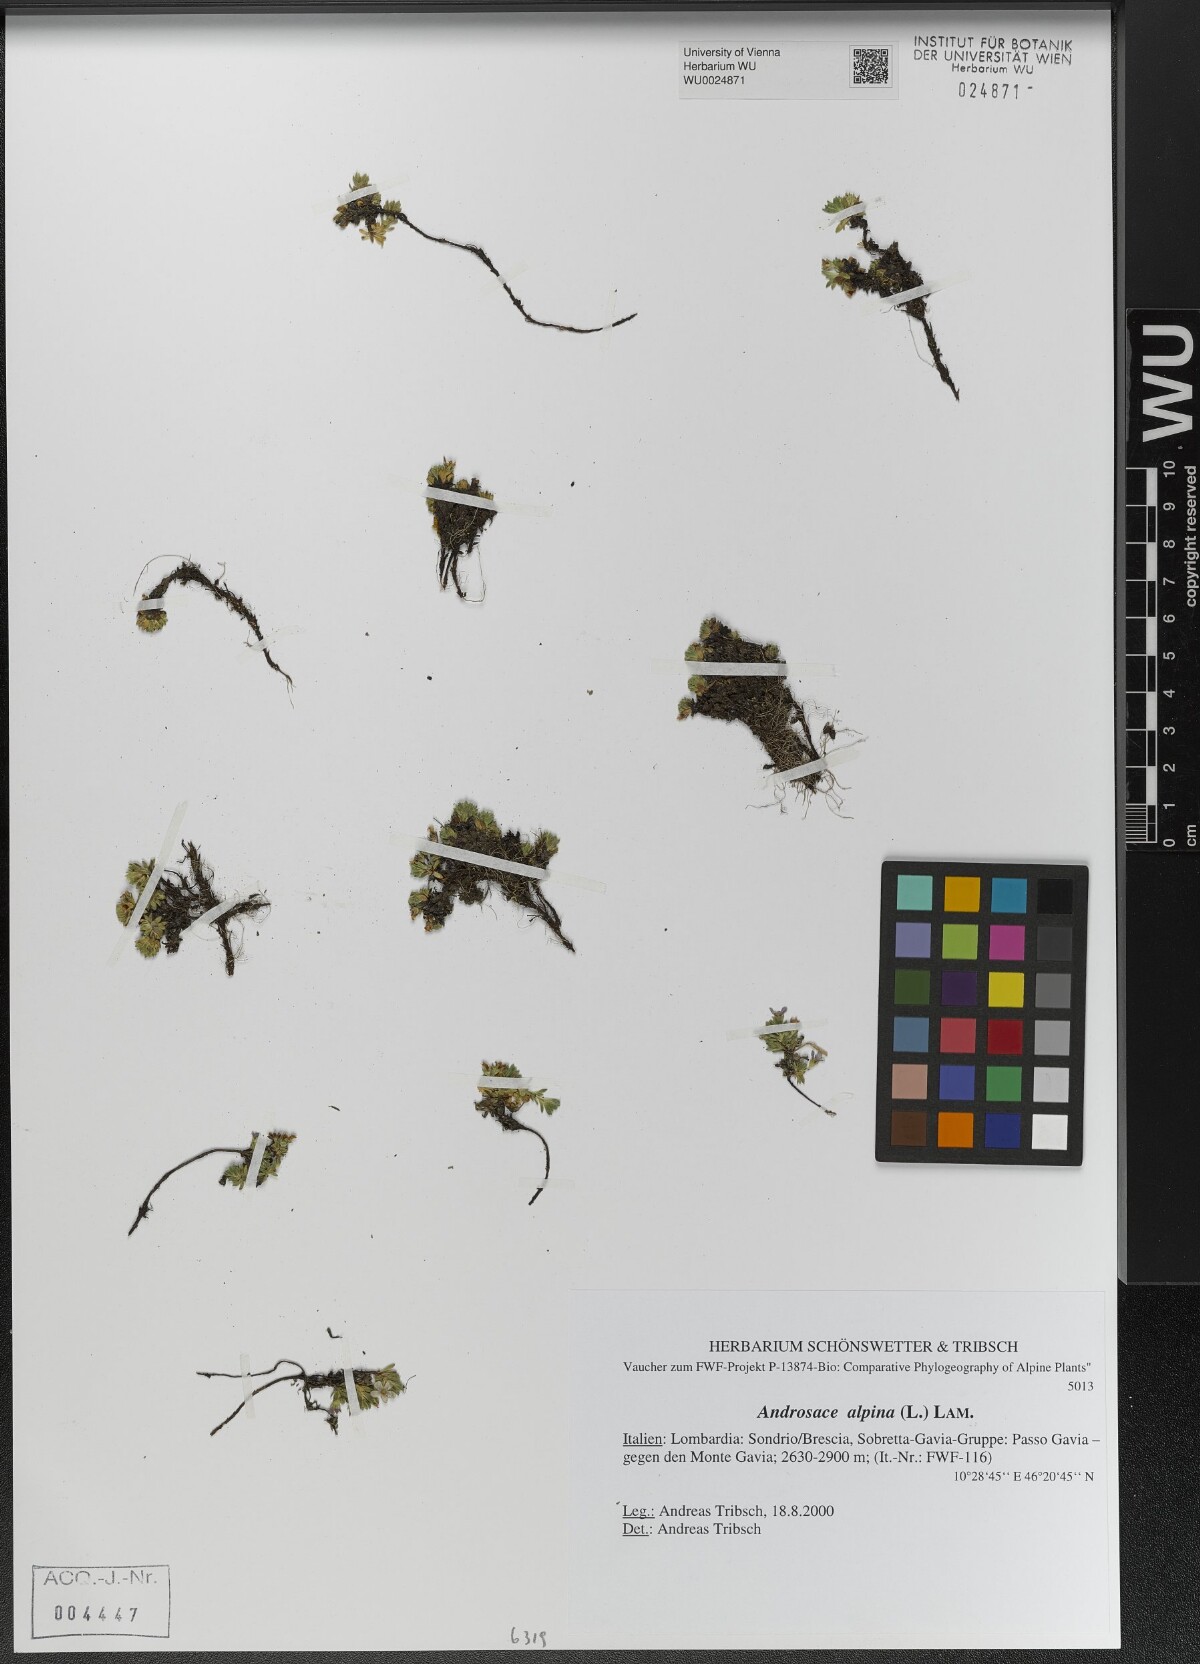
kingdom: Plantae
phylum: Tracheophyta
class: Magnoliopsida
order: Ericales
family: Primulaceae
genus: Androsace
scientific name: Androsace alpina
